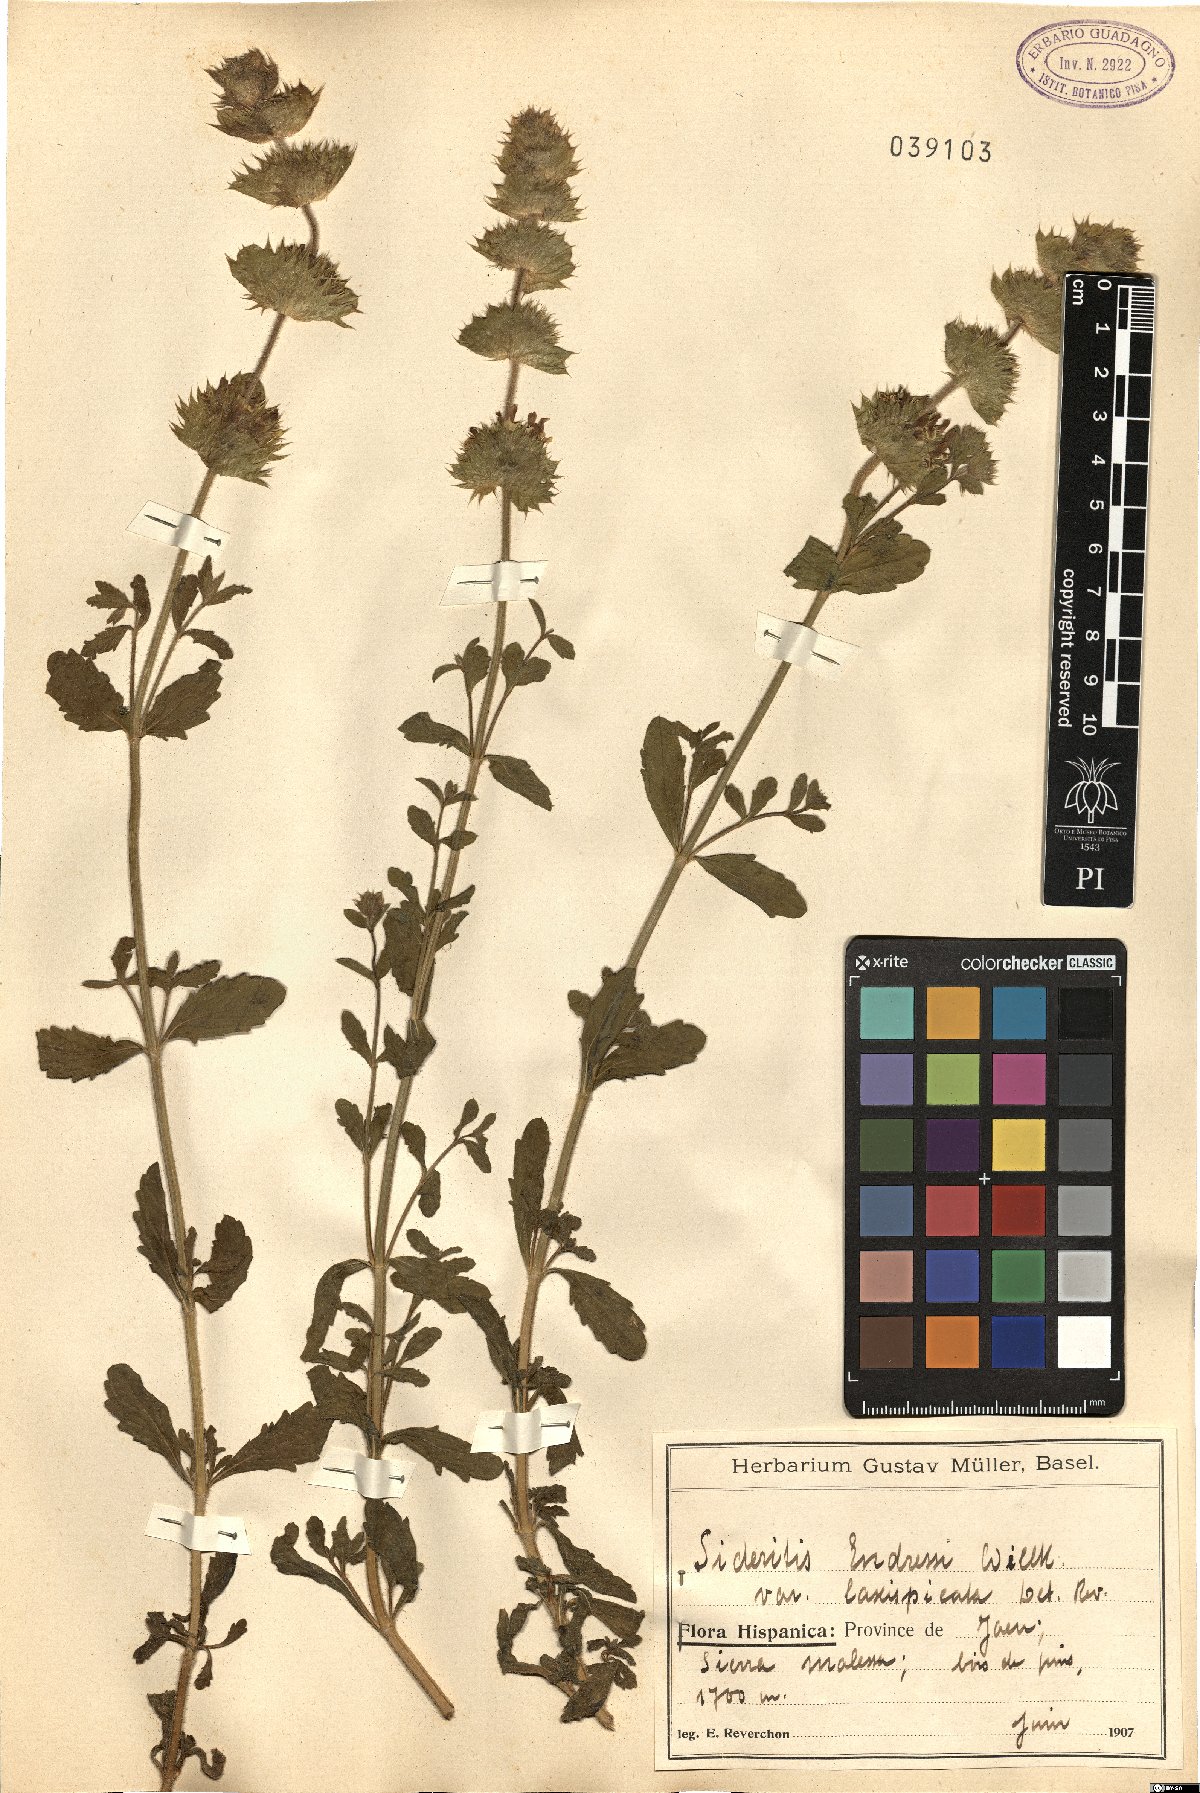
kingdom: Plantae
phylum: Tracheophyta
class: Magnoliopsida
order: Lamiales
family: Lamiaceae
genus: Sideritis
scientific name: Sideritis laxispicata
